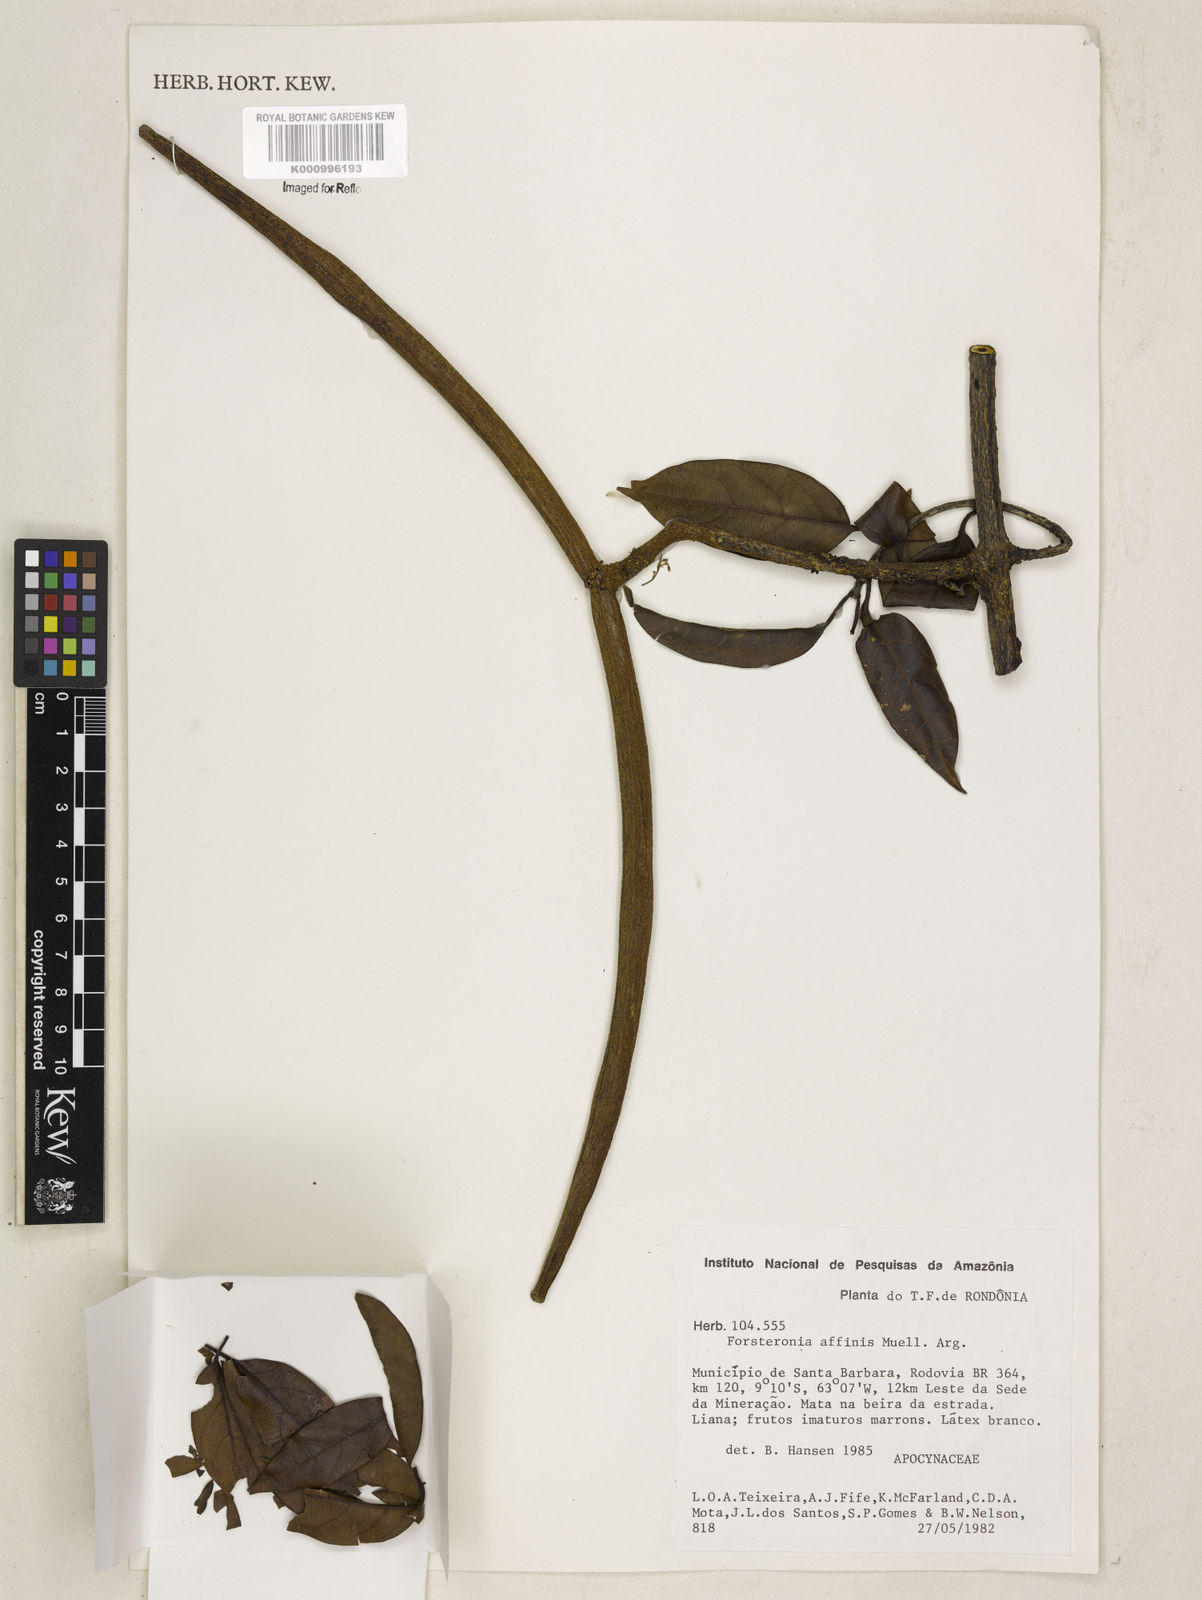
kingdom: Plantae
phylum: Tracheophyta
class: Magnoliopsida
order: Gentianales
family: Apocynaceae
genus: Forsteronia
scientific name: Forsteronia
